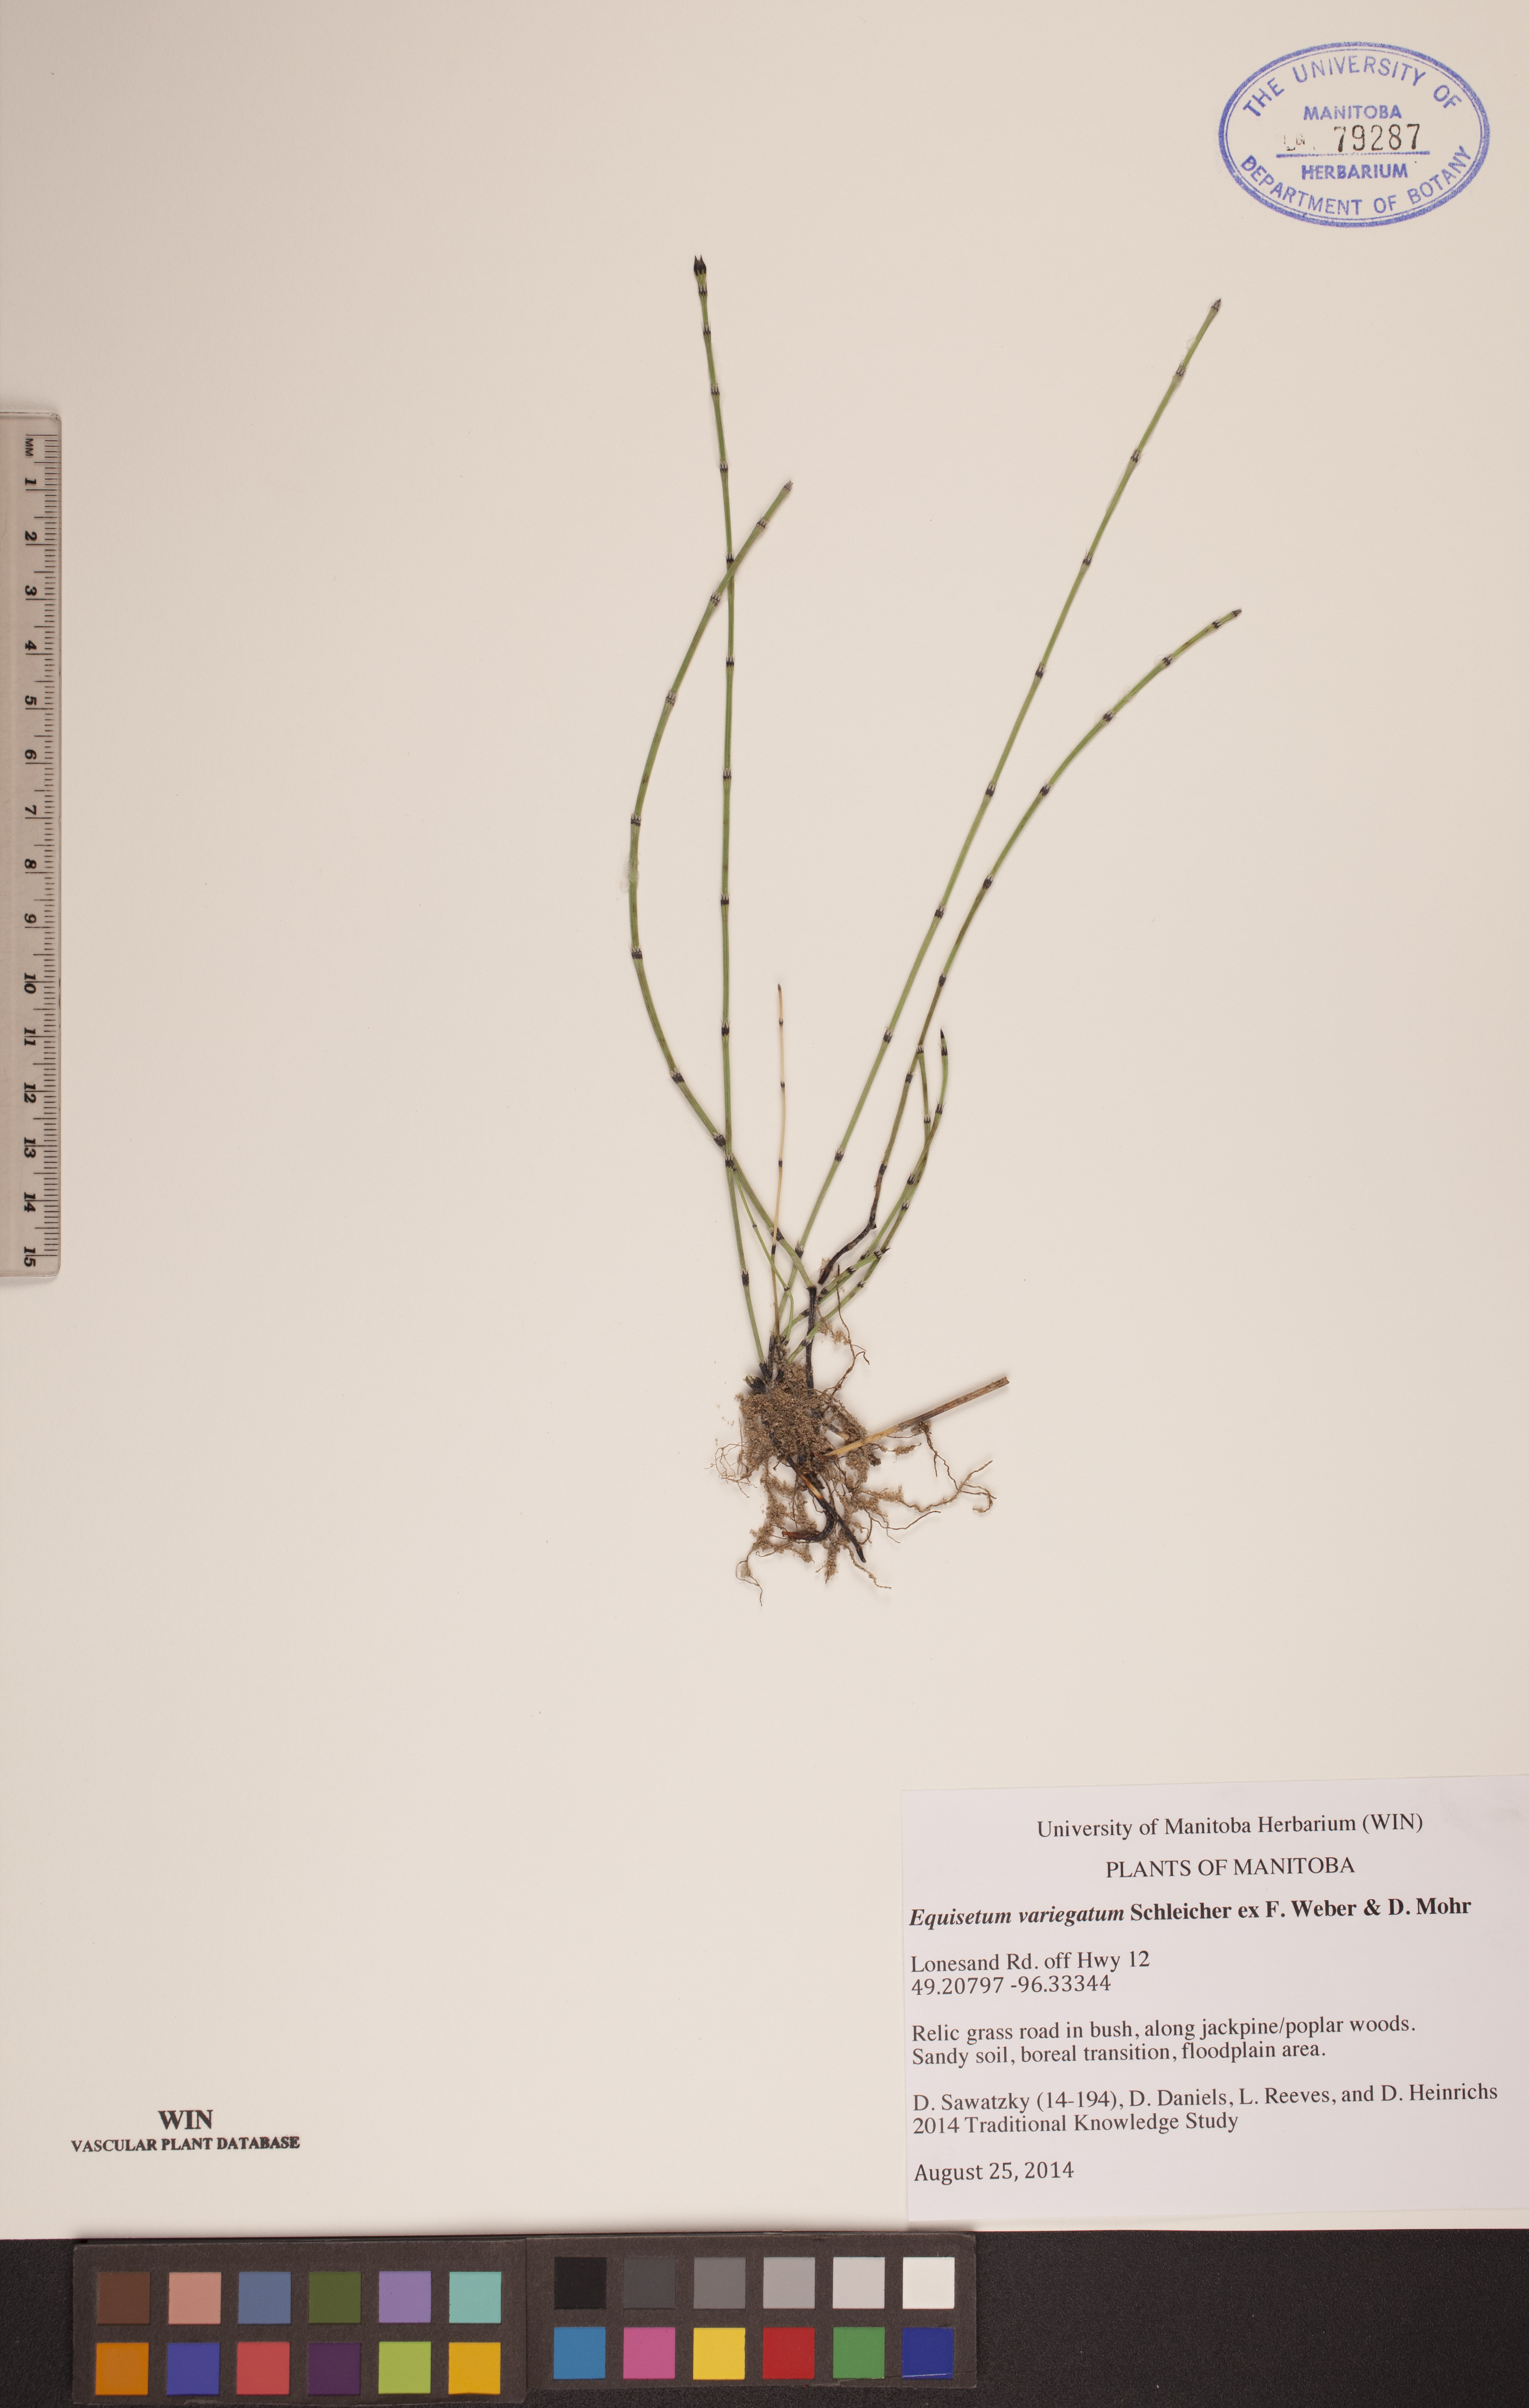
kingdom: Plantae
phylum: Tracheophyta
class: Polypodiopsida
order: Equisetales
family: Equisetaceae
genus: Equisetum
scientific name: Equisetum variegatum
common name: Variegated horsetail
